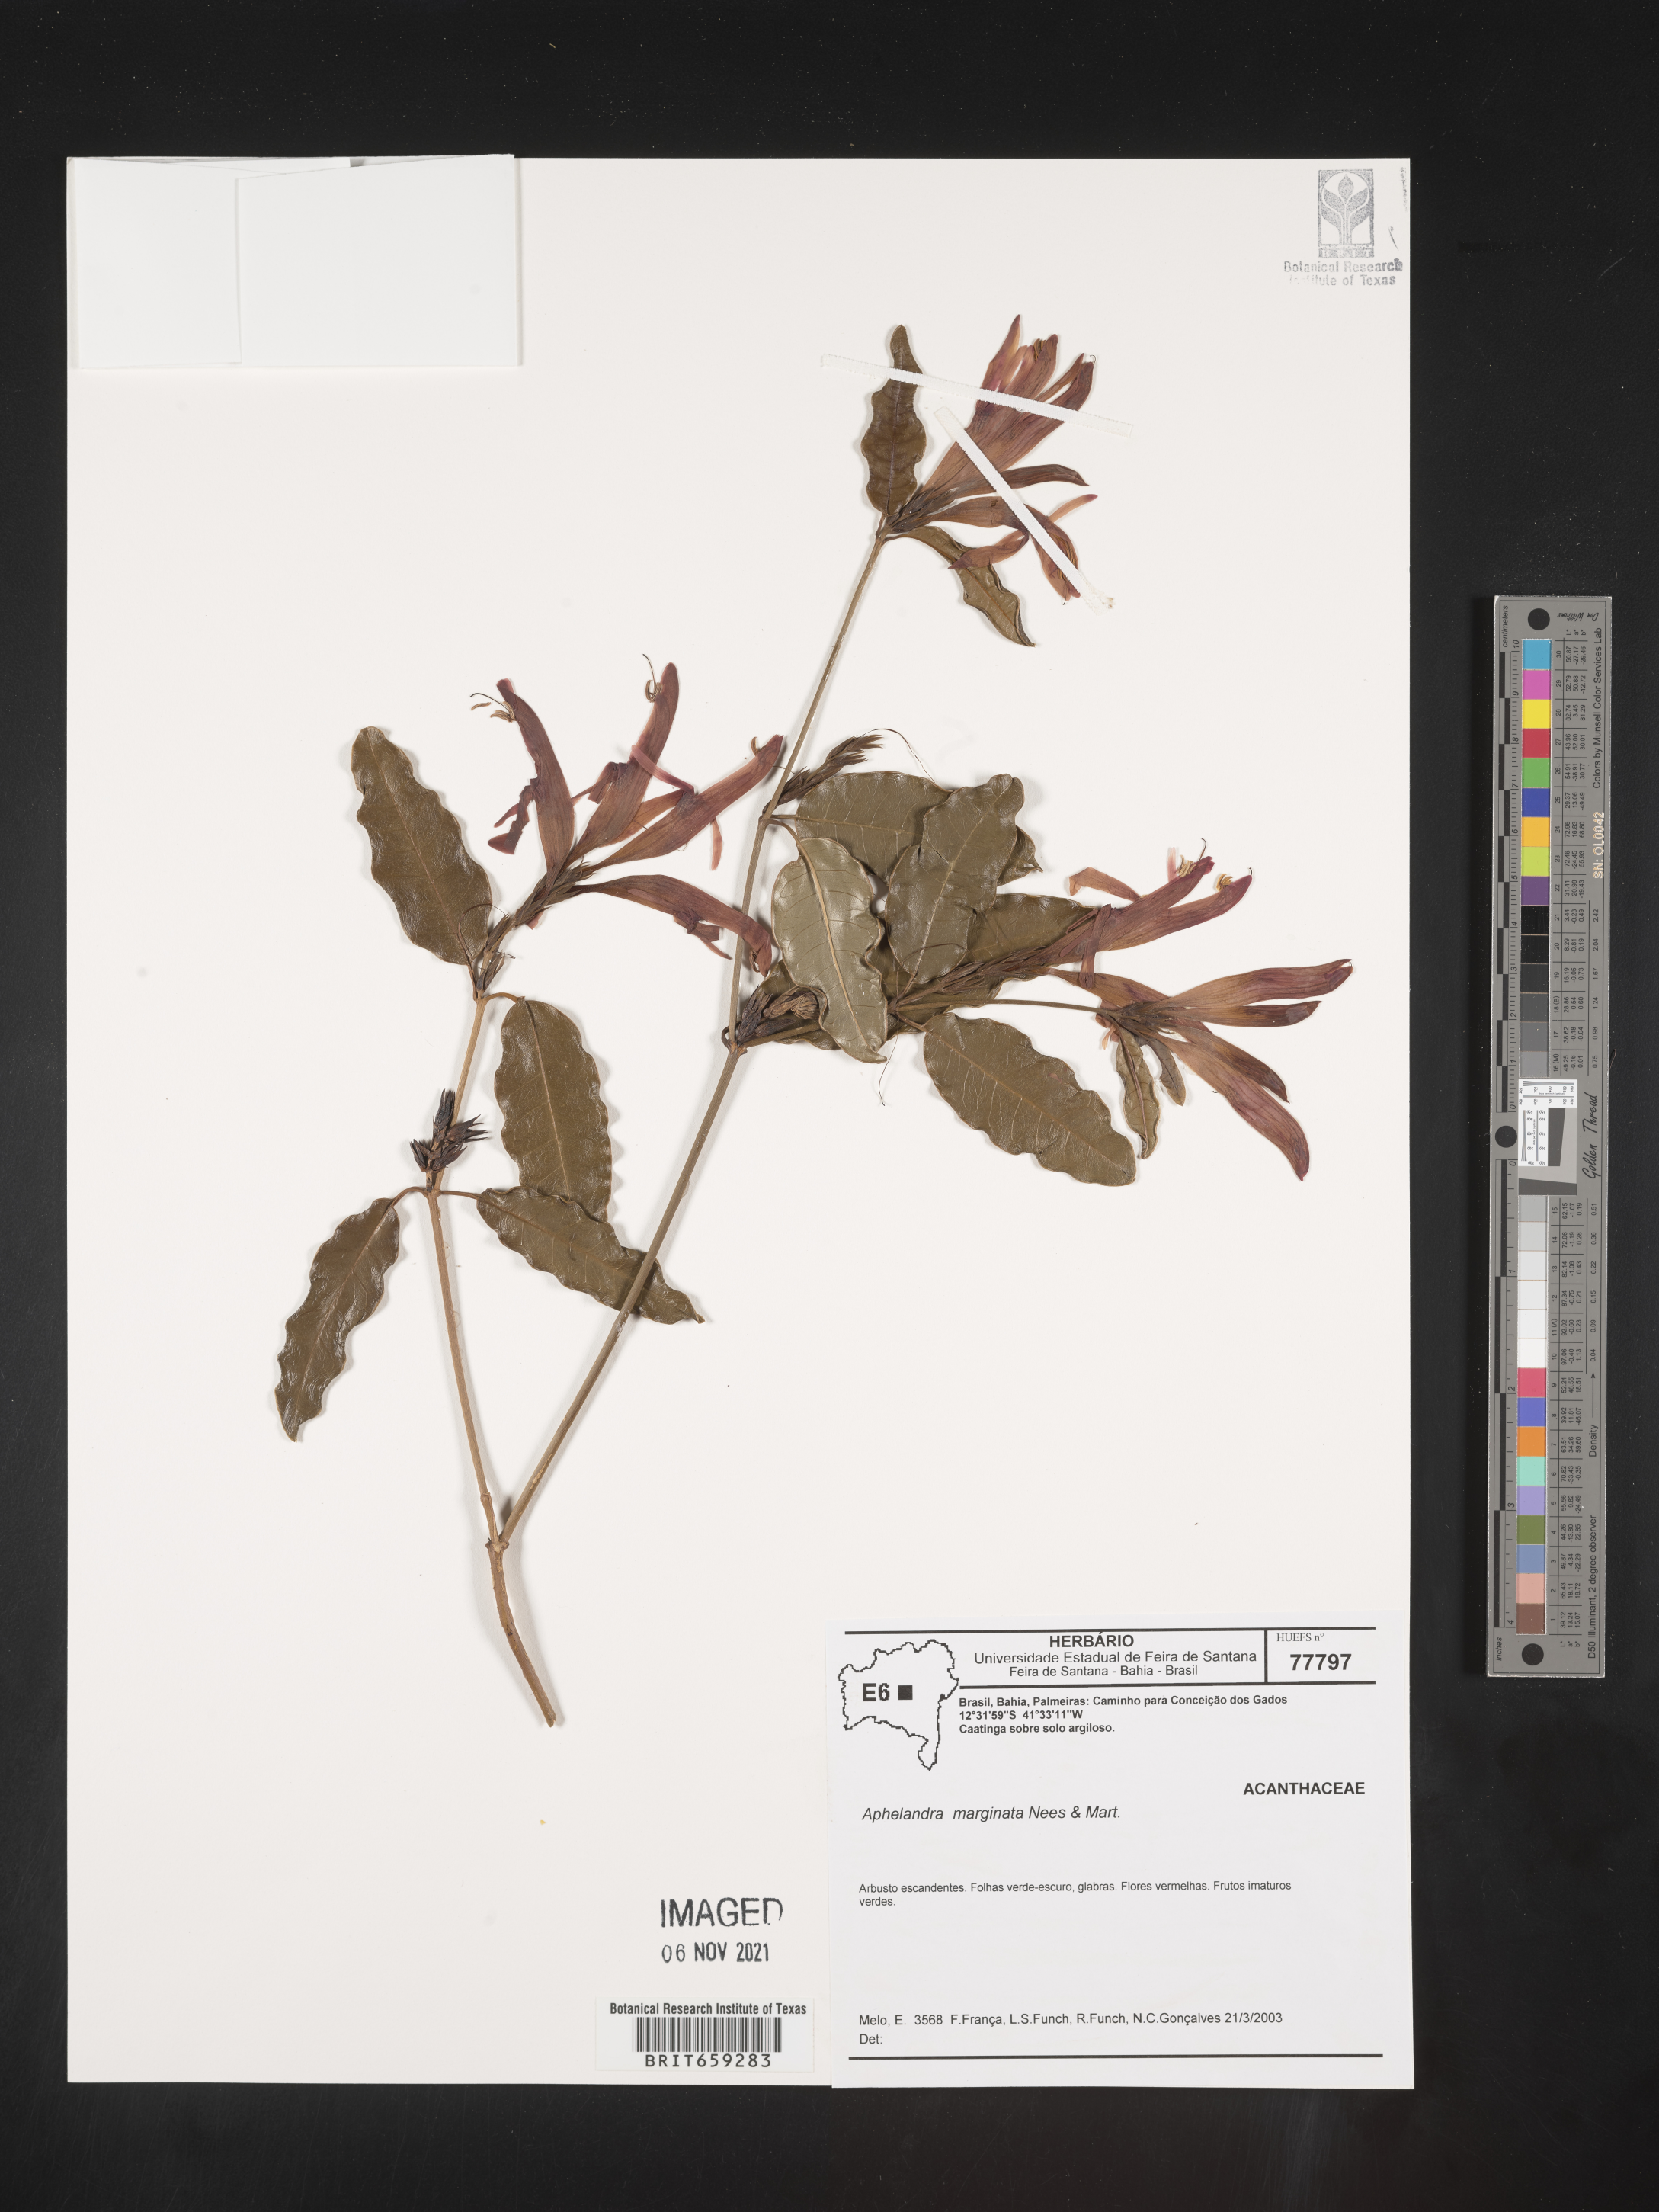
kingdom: Plantae
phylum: Tracheophyta
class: Magnoliopsida
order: Lamiales
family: Acanthaceae
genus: Aphelandra
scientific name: Aphelandra
